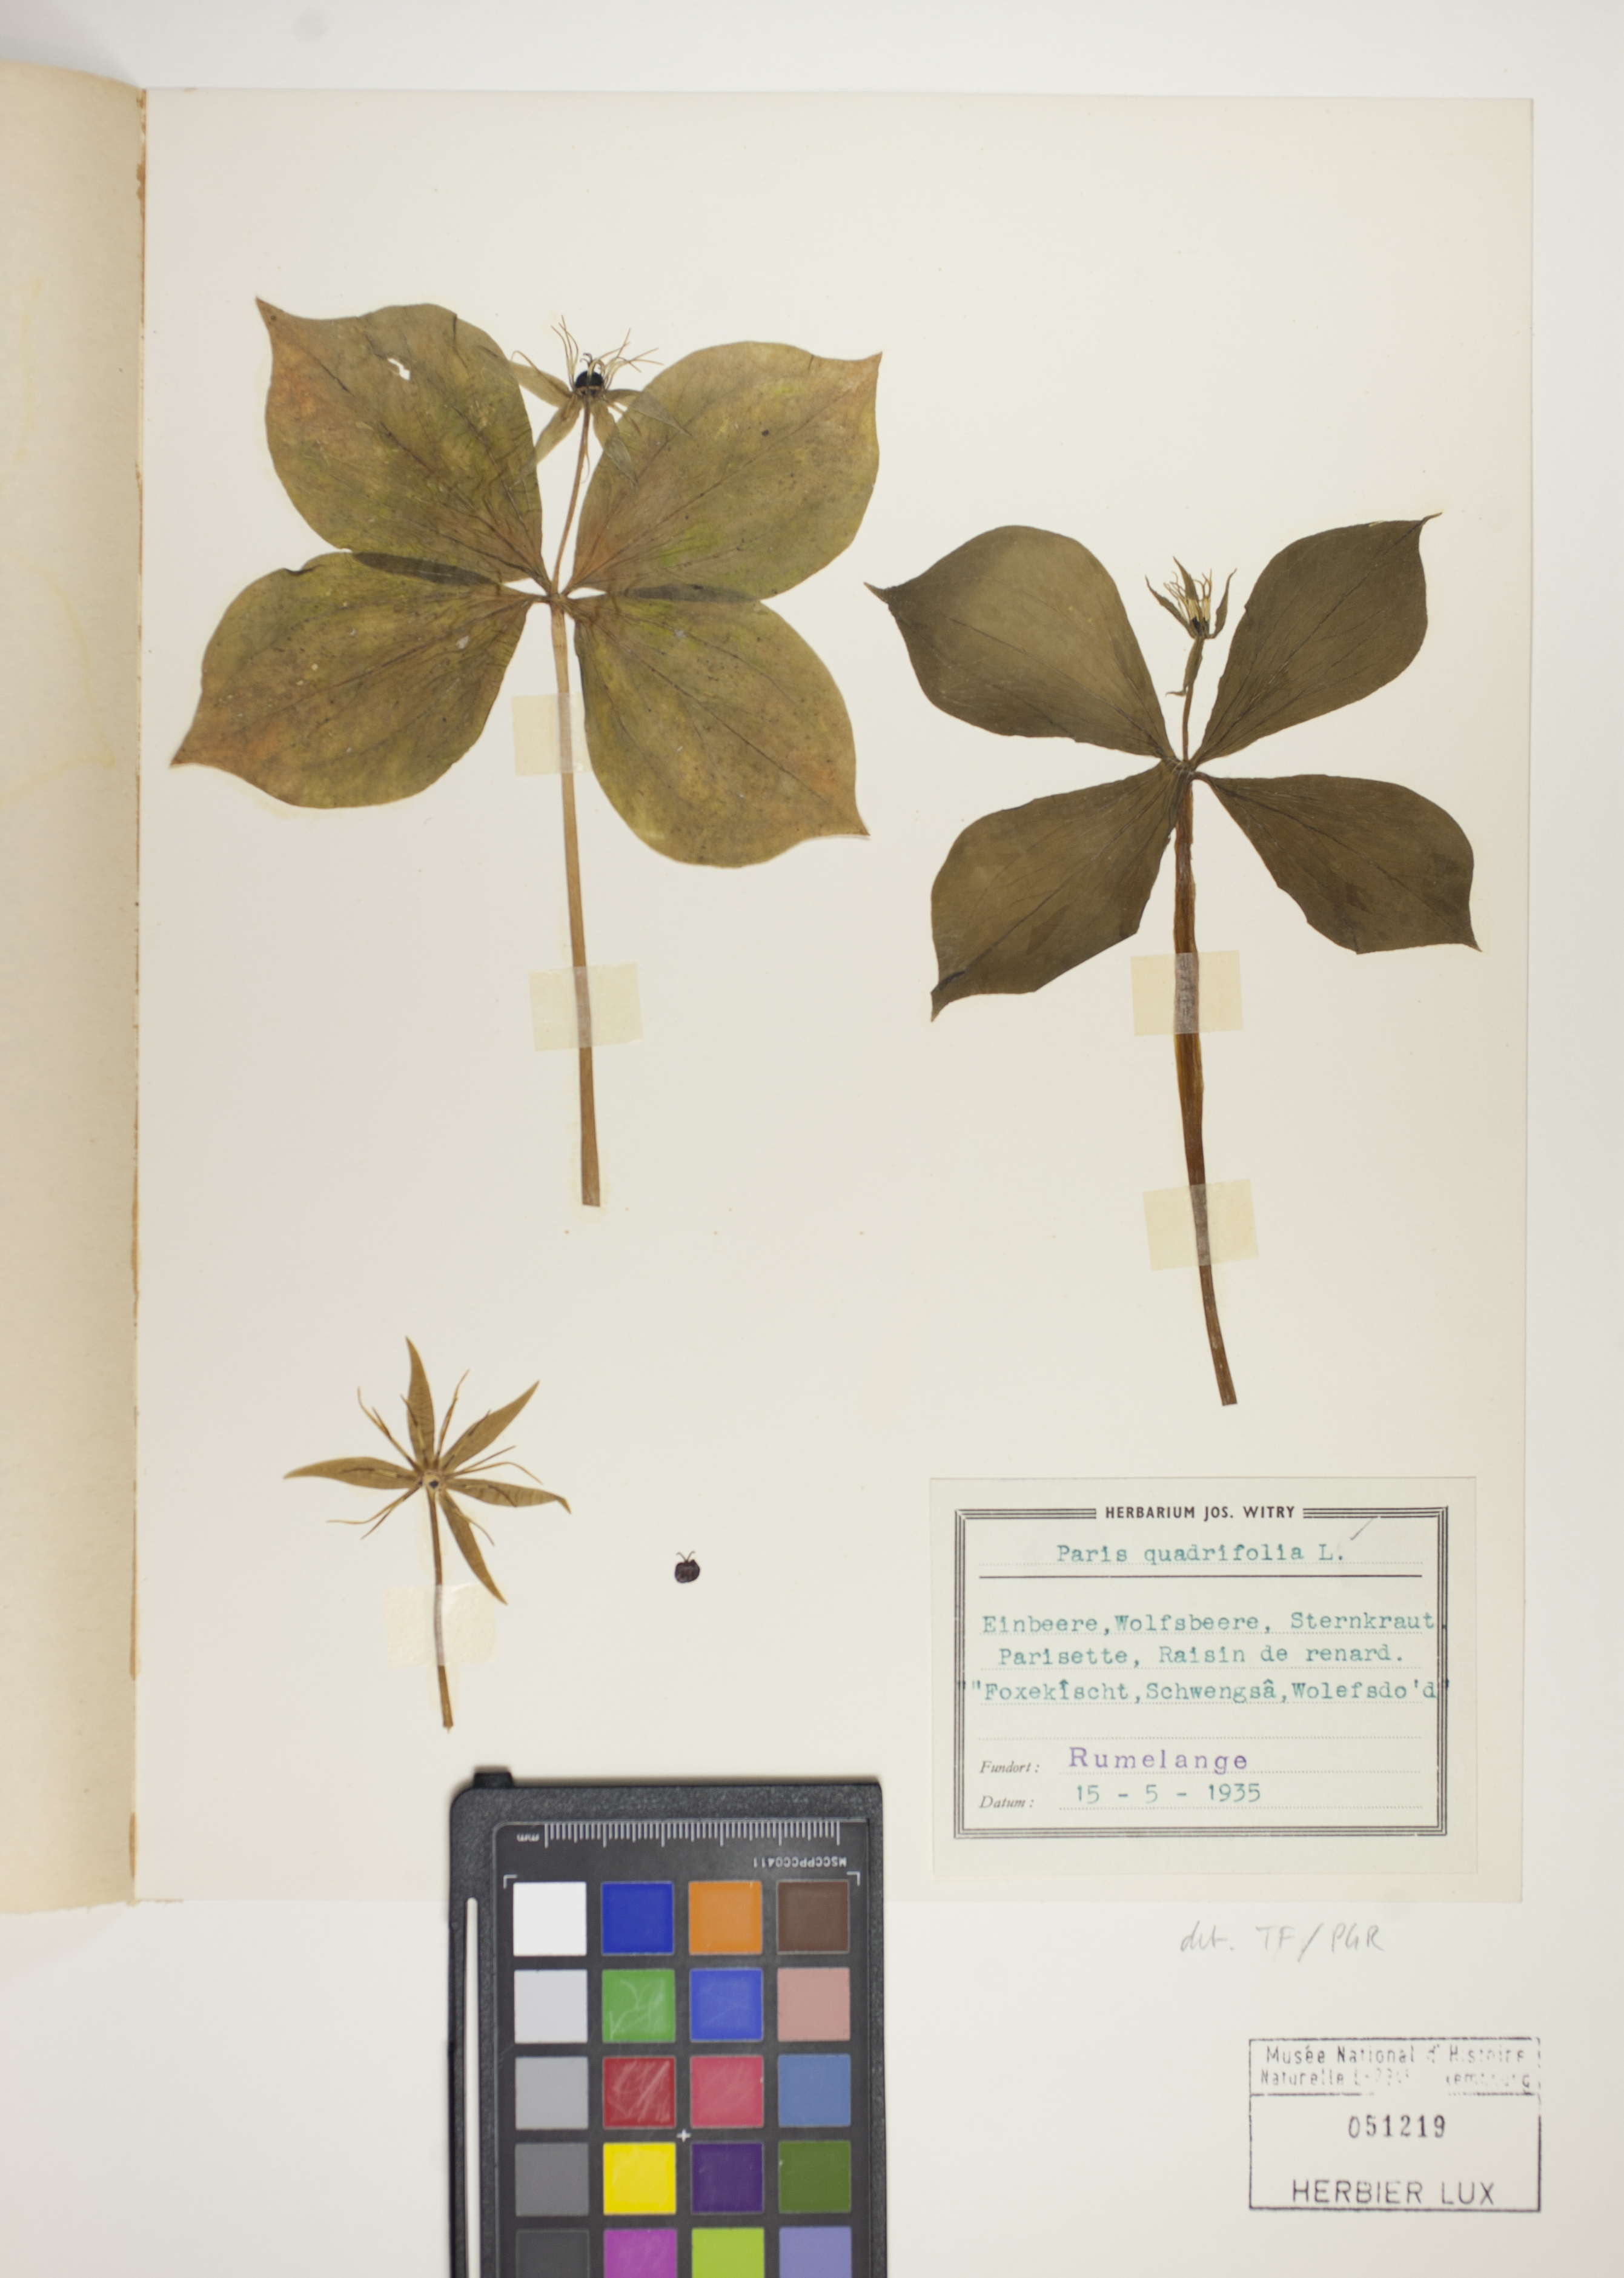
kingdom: Plantae
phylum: Tracheophyta
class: Liliopsida
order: Liliales
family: Melanthiaceae
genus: Paris
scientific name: Paris quadrifolia
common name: Herb-paris
